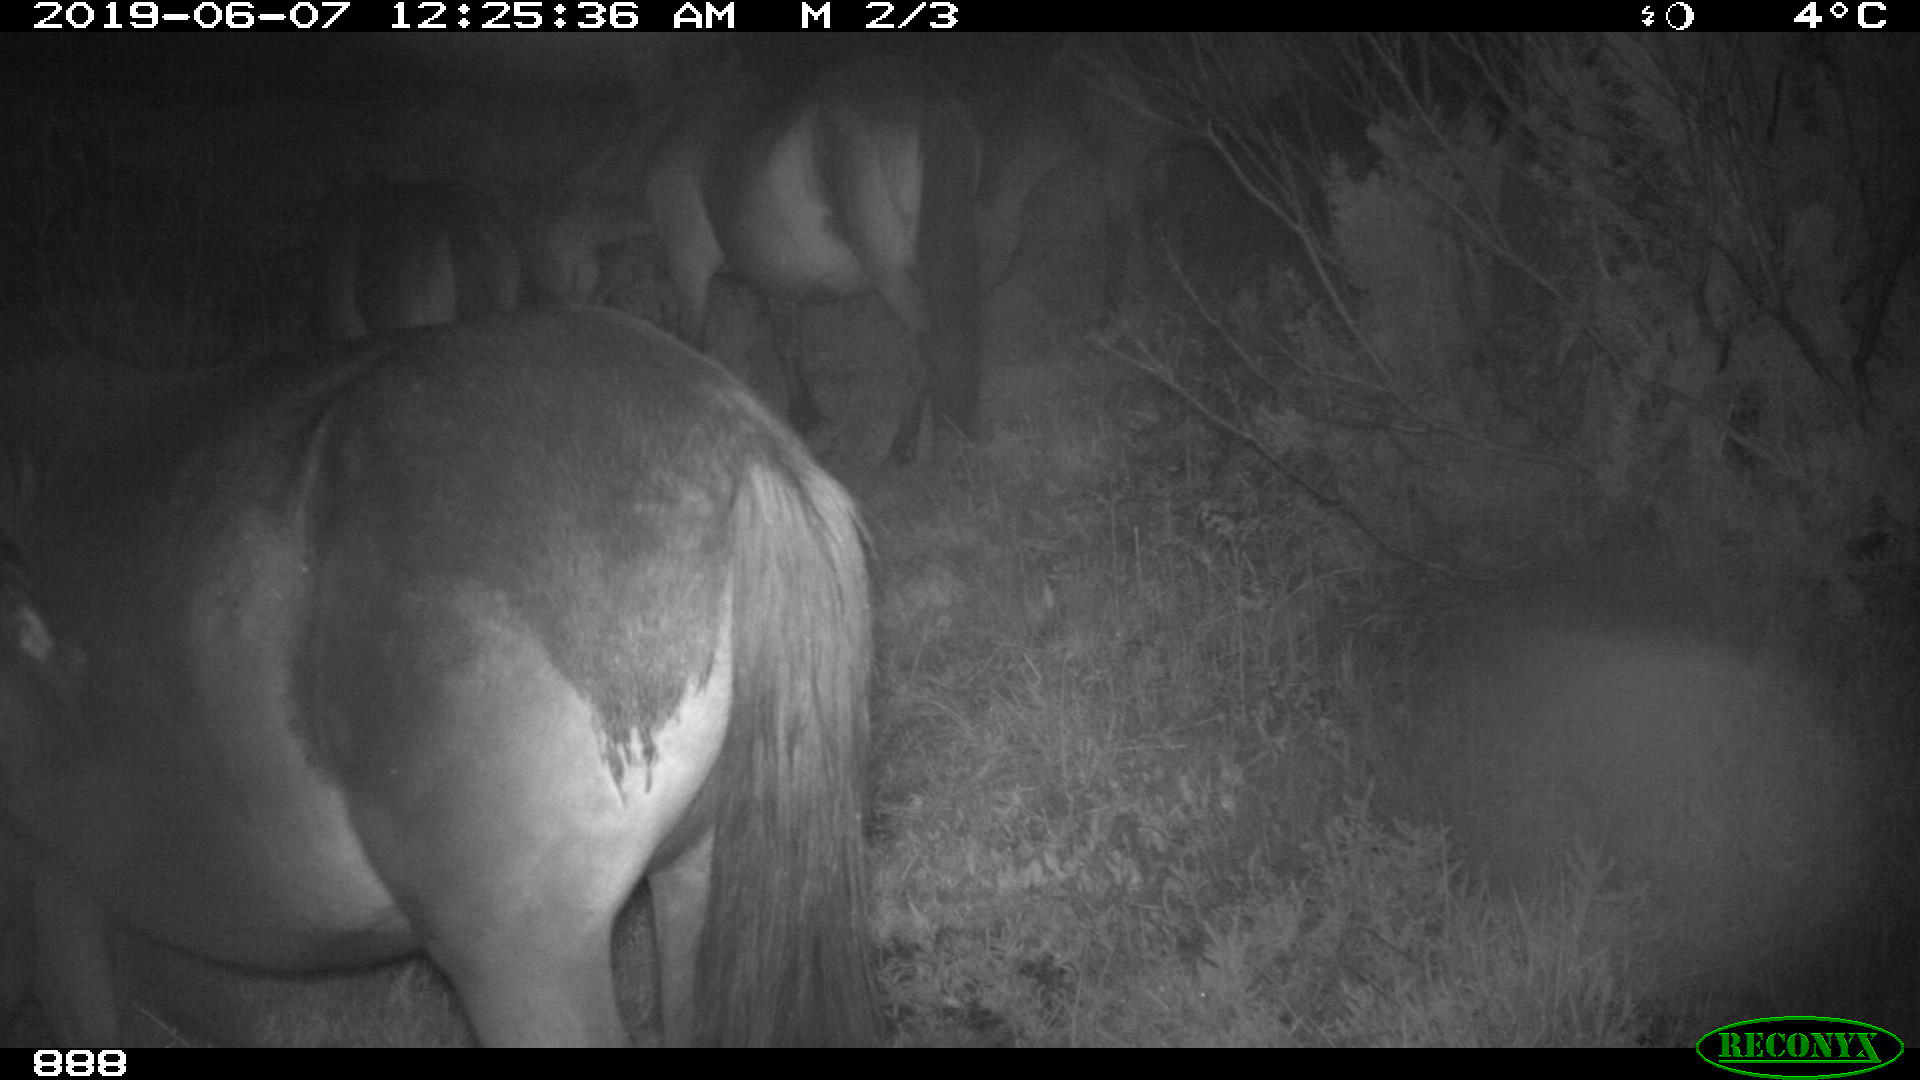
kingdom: Animalia
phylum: Chordata
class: Mammalia
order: Perissodactyla
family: Equidae
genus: Equus
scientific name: Equus caballus
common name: Horse
